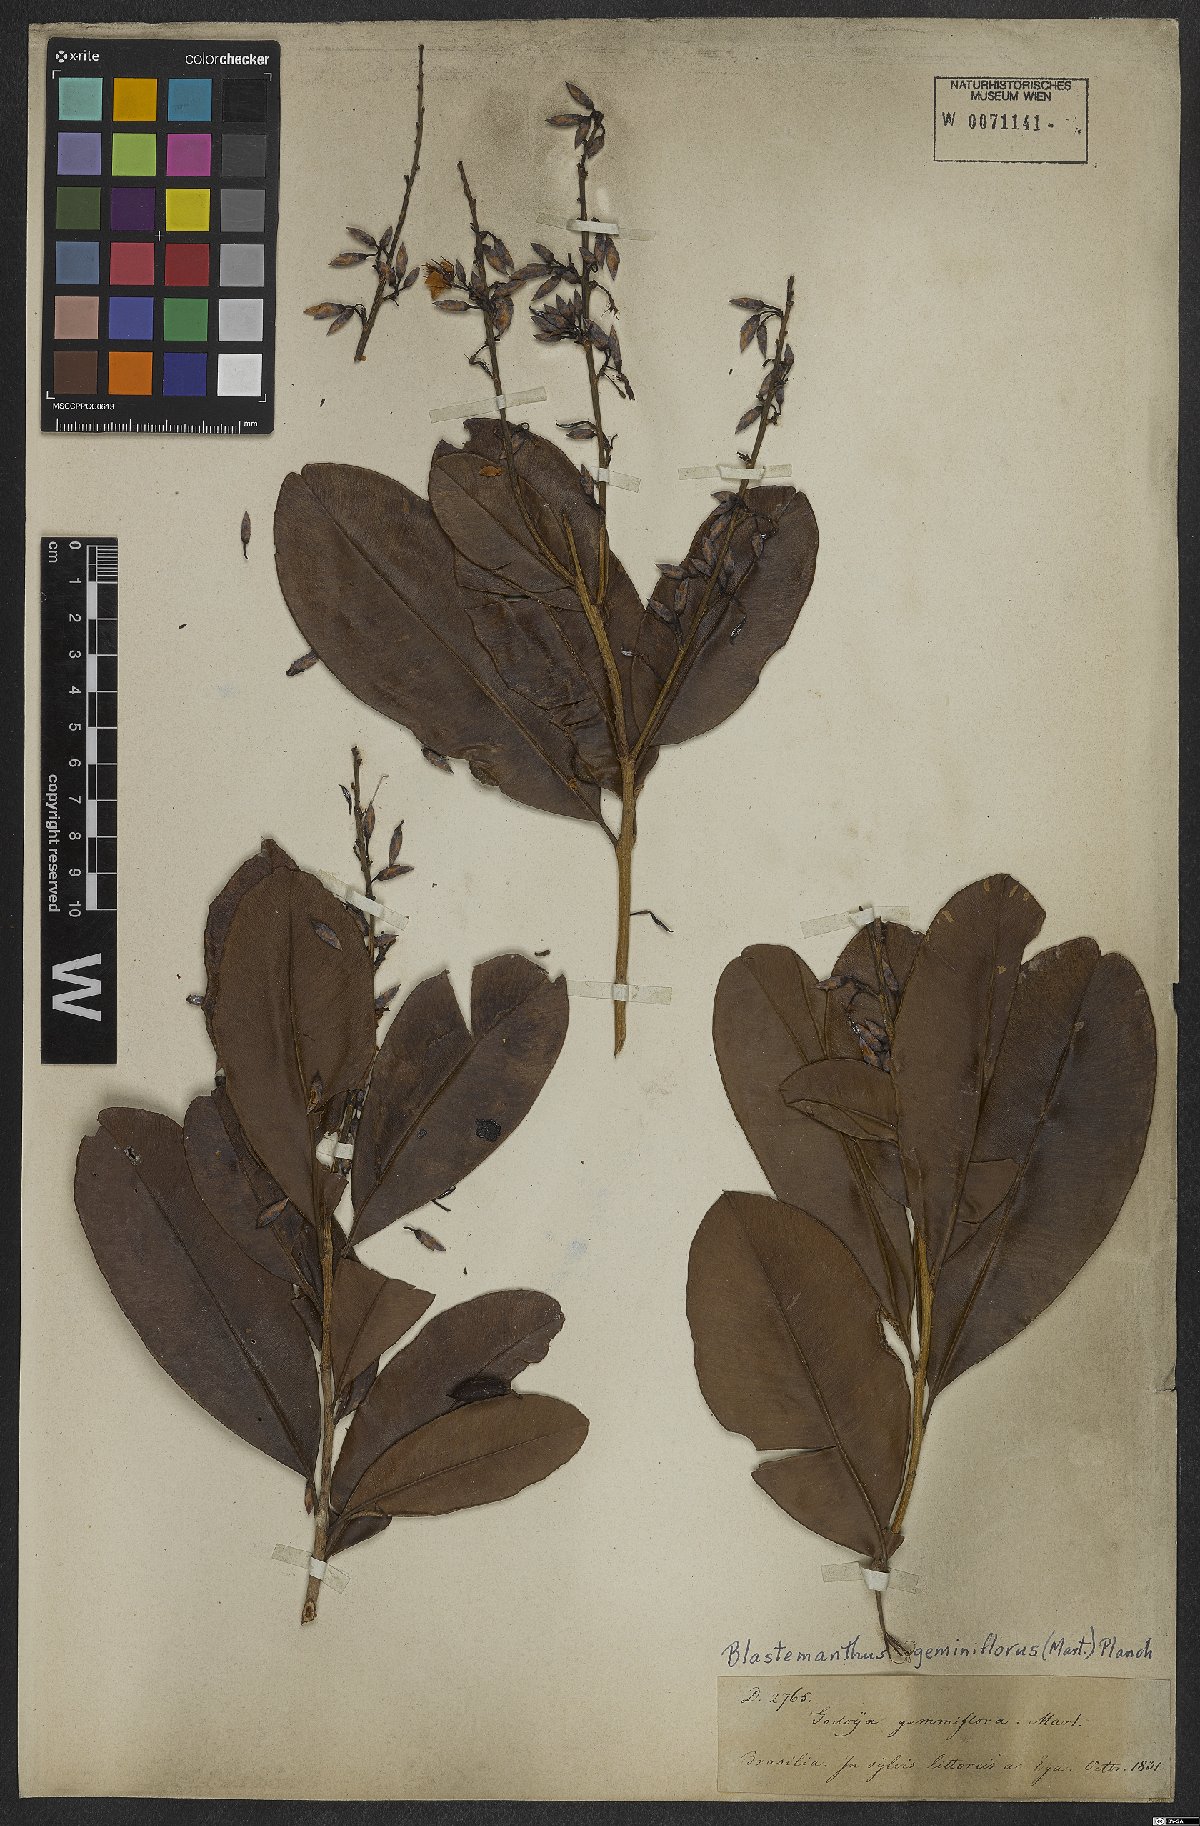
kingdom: Plantae
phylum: Tracheophyta
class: Magnoliopsida
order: Malpighiales
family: Ochnaceae
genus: Blastemanthus
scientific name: Blastemanthus gemmiflorus
